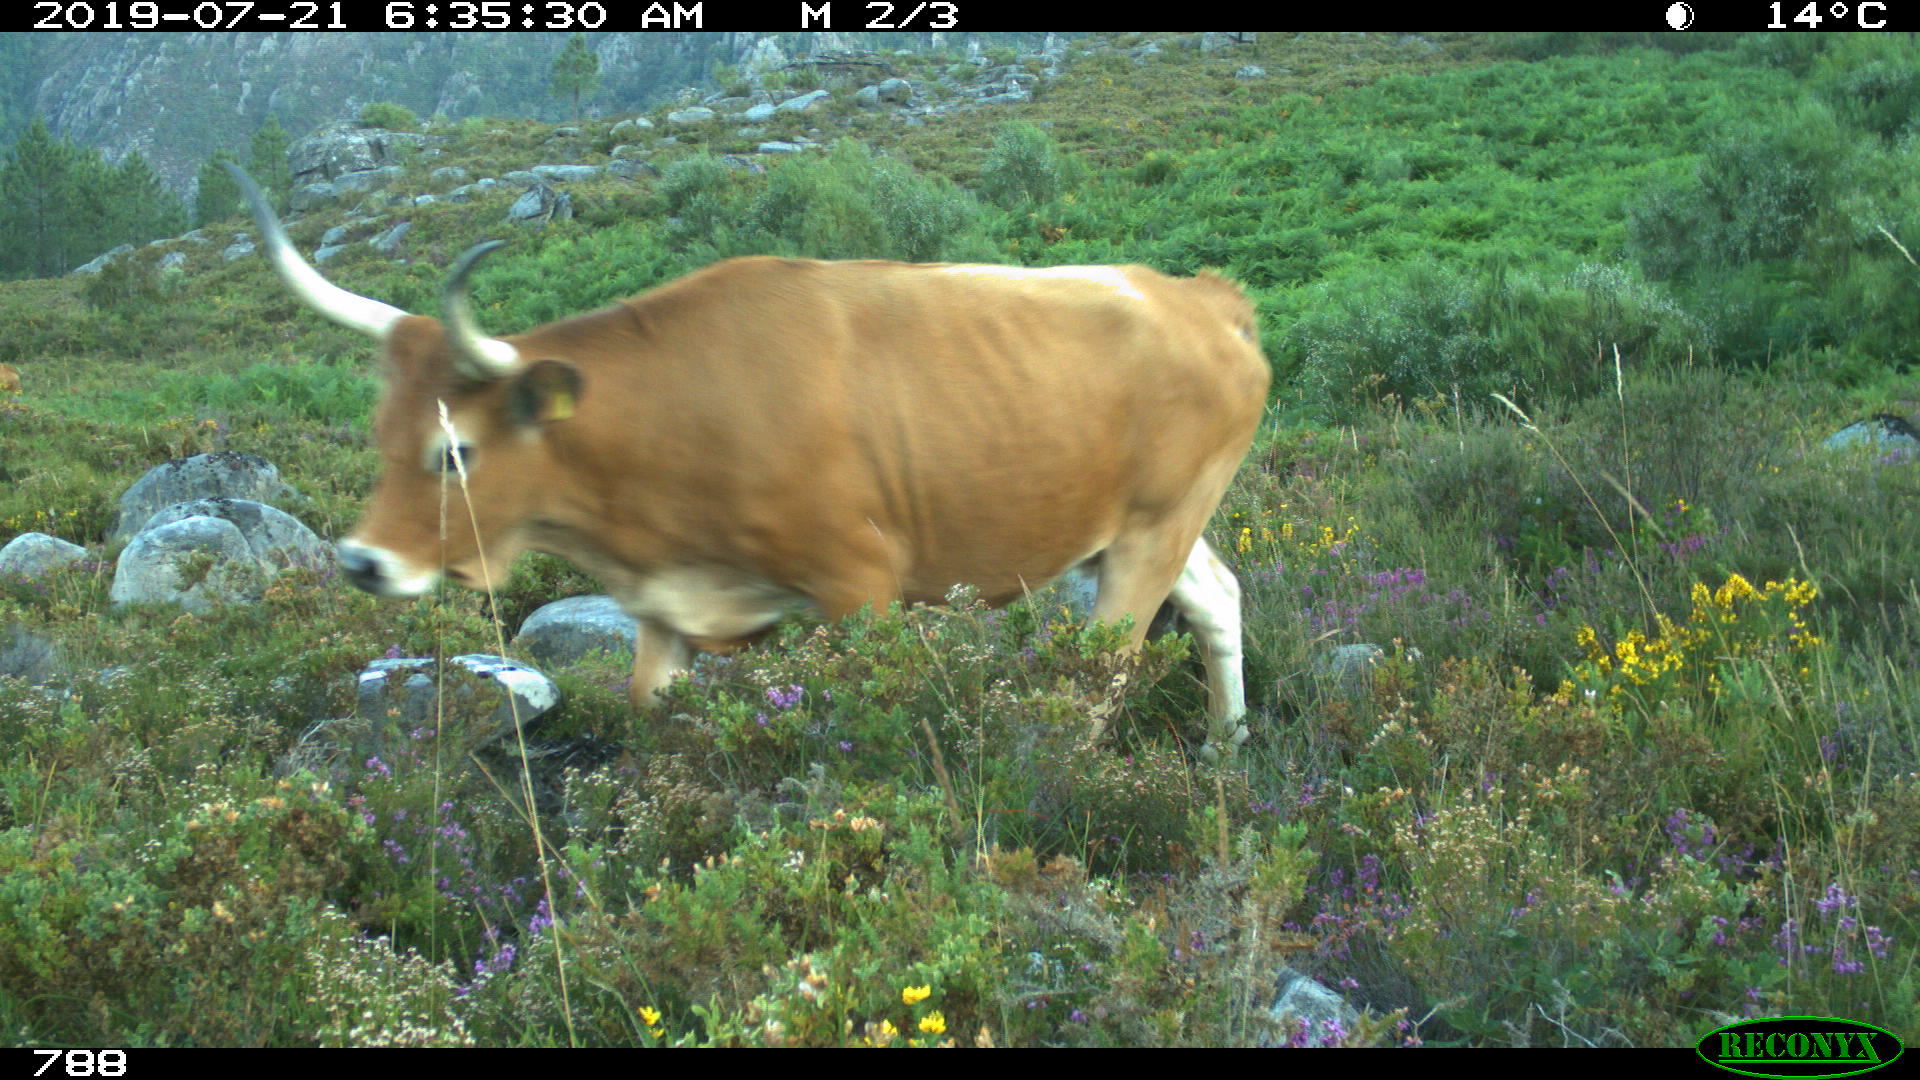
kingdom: Animalia
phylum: Chordata
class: Mammalia
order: Artiodactyla
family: Bovidae
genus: Bos
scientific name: Bos taurus
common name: Domesticated cattle
